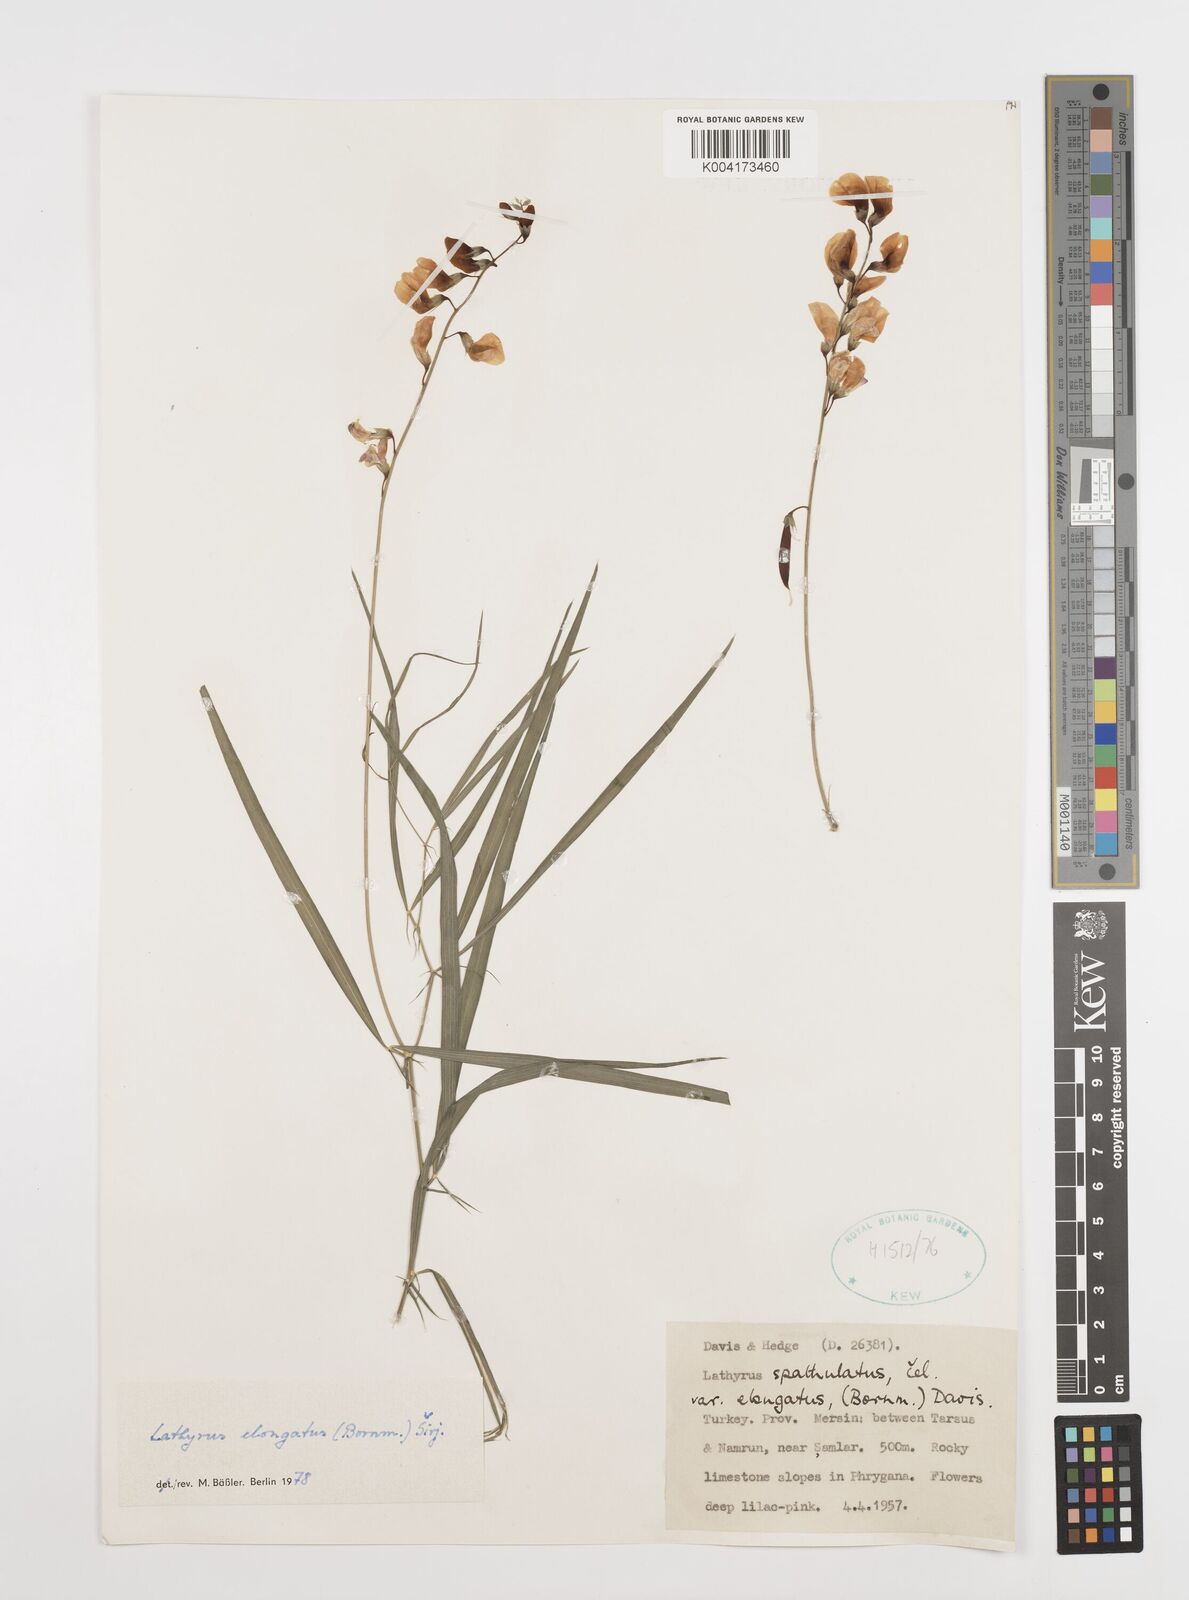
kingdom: Plantae
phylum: Tracheophyta
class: Magnoliopsida
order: Fabales
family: Fabaceae
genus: Lathyrus
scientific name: Lathyrus elongatus
